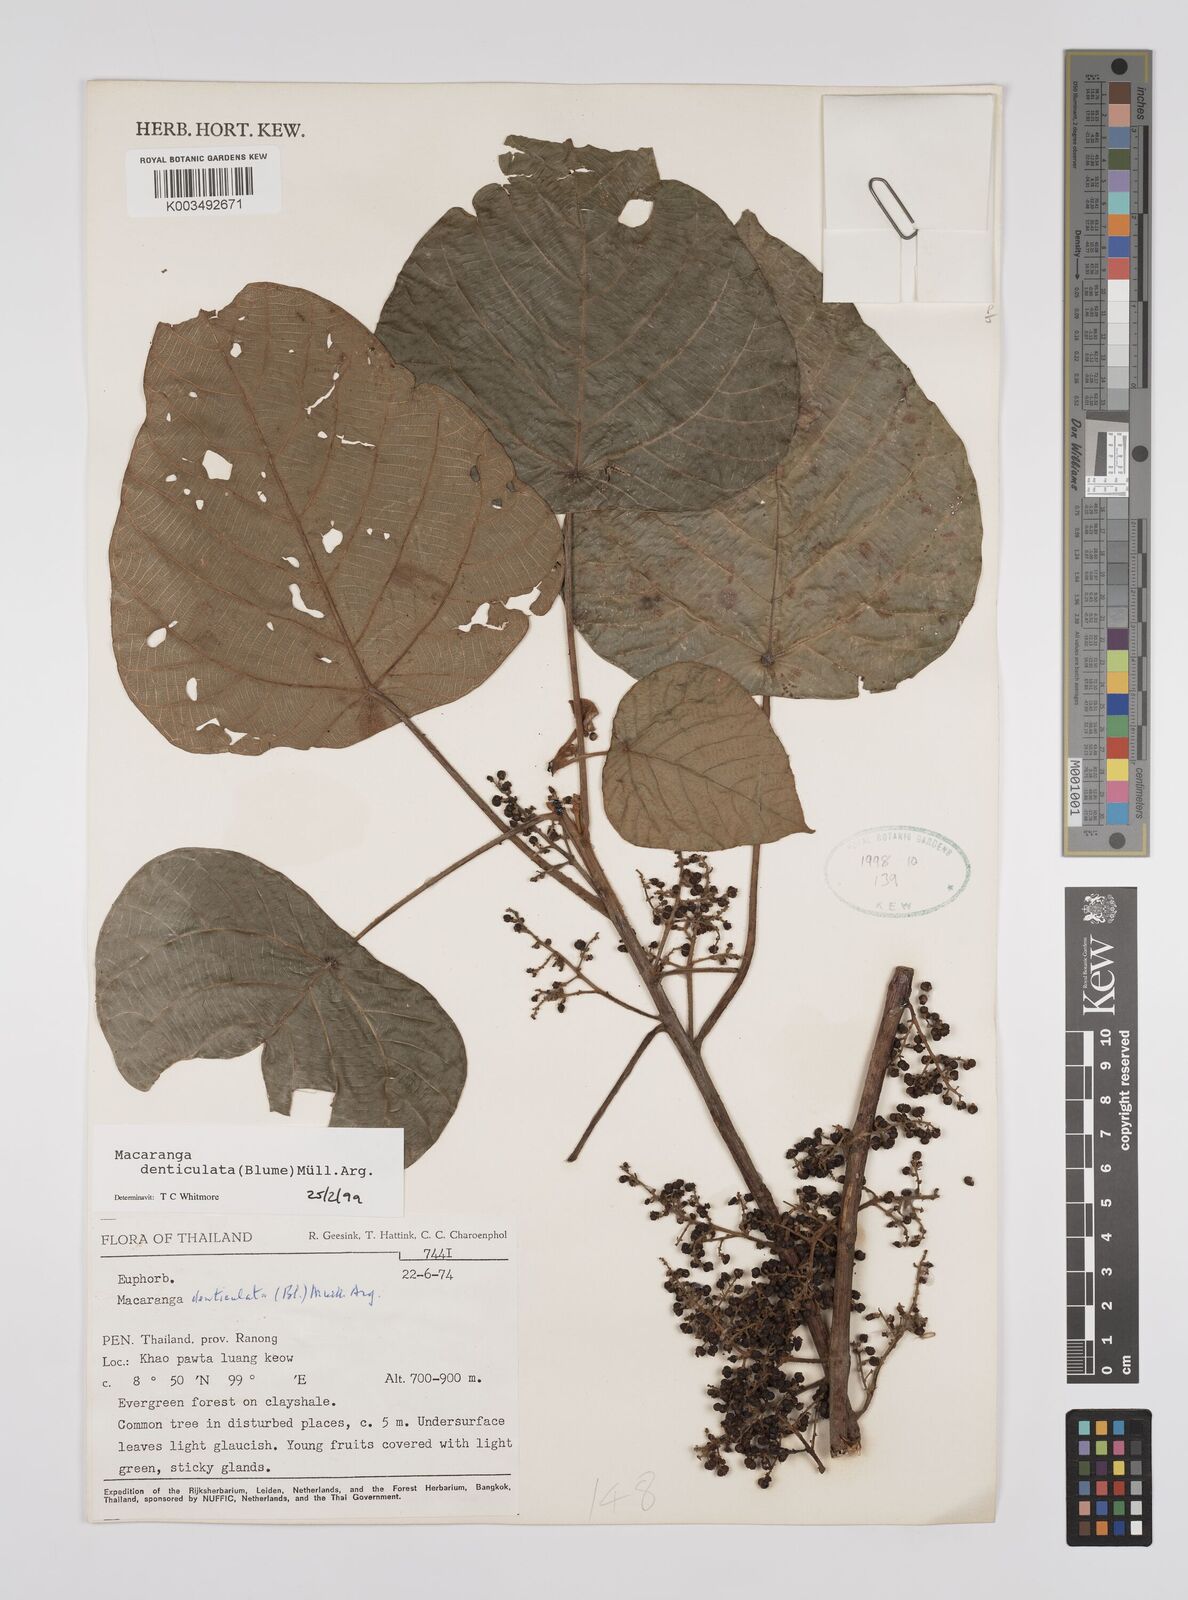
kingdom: Plantae
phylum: Tracheophyta
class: Magnoliopsida
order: Malpighiales
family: Euphorbiaceae
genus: Macaranga
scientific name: Macaranga denticulata
